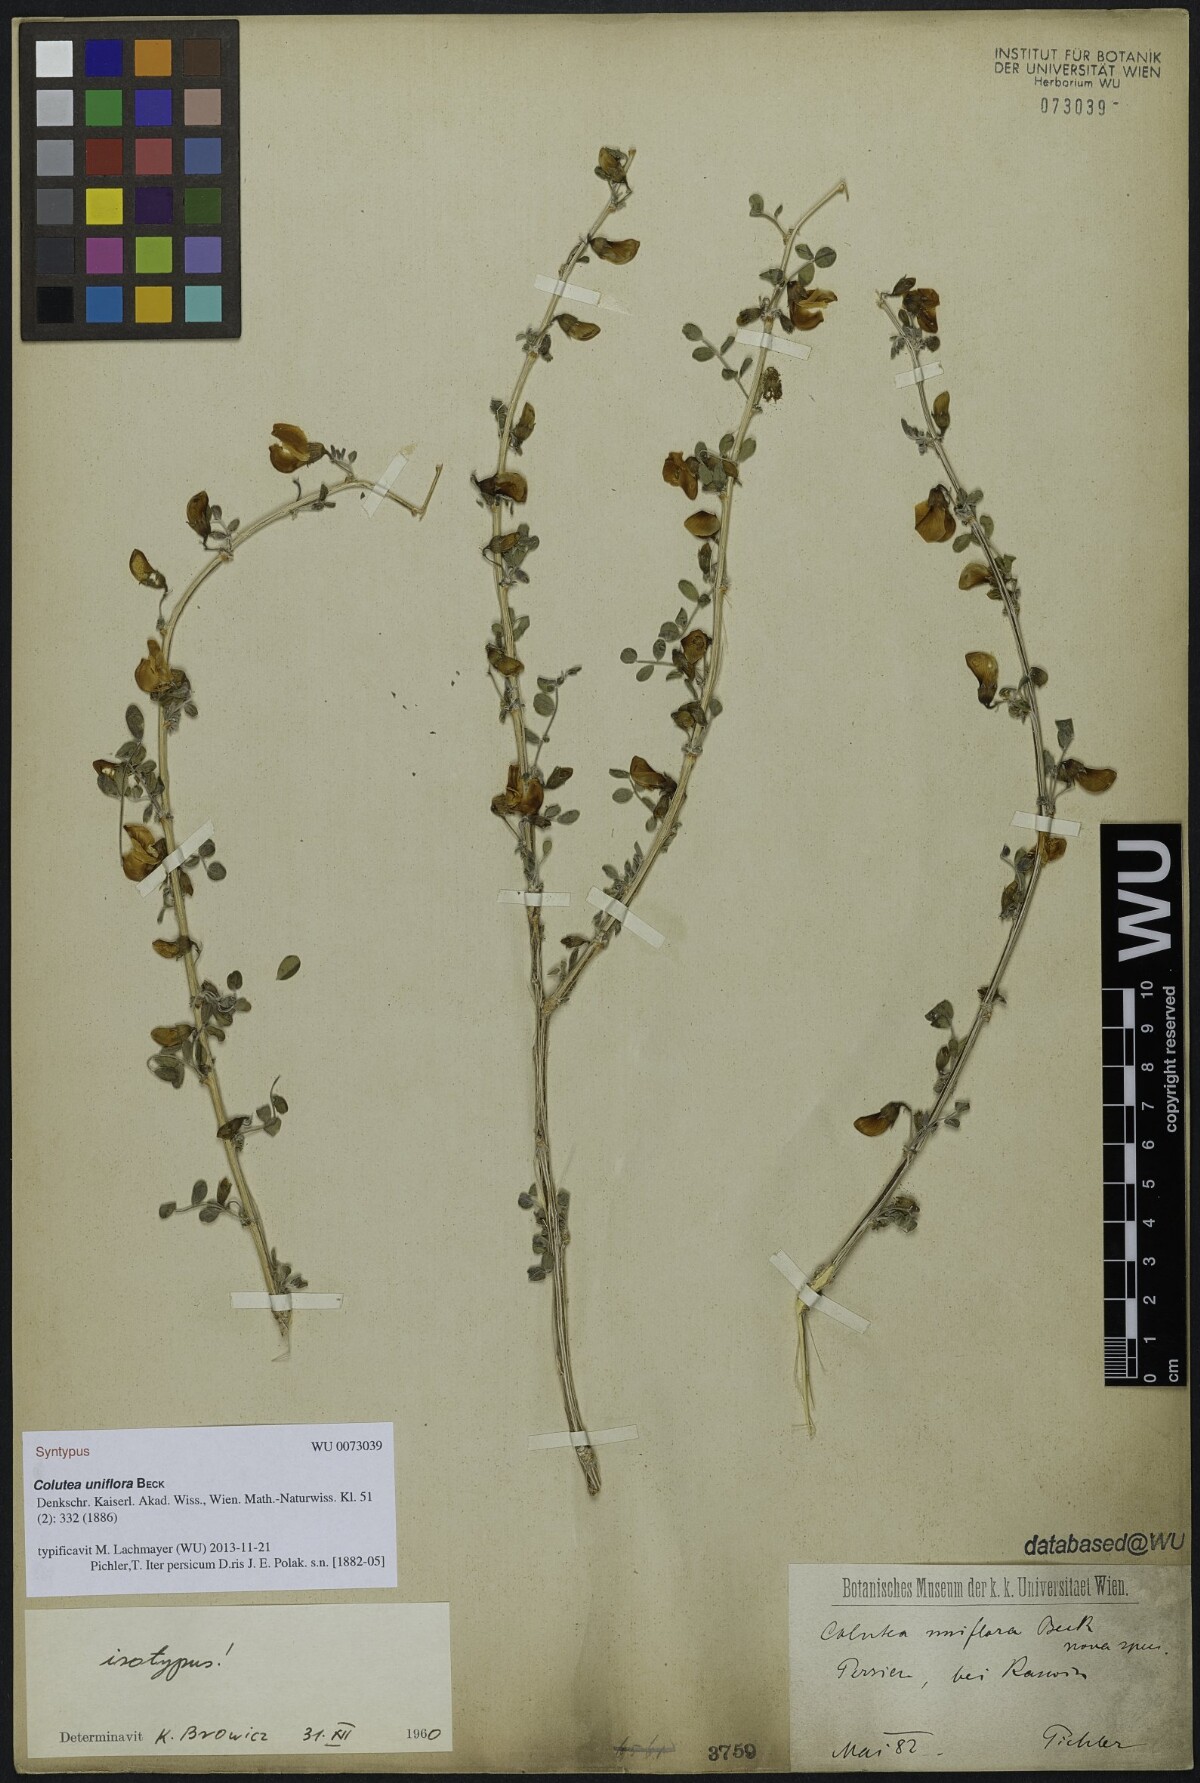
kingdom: Plantae
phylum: Tracheophyta
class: Magnoliopsida
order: Fabales
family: Fabaceae
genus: Colutea
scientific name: Colutea uniflora
